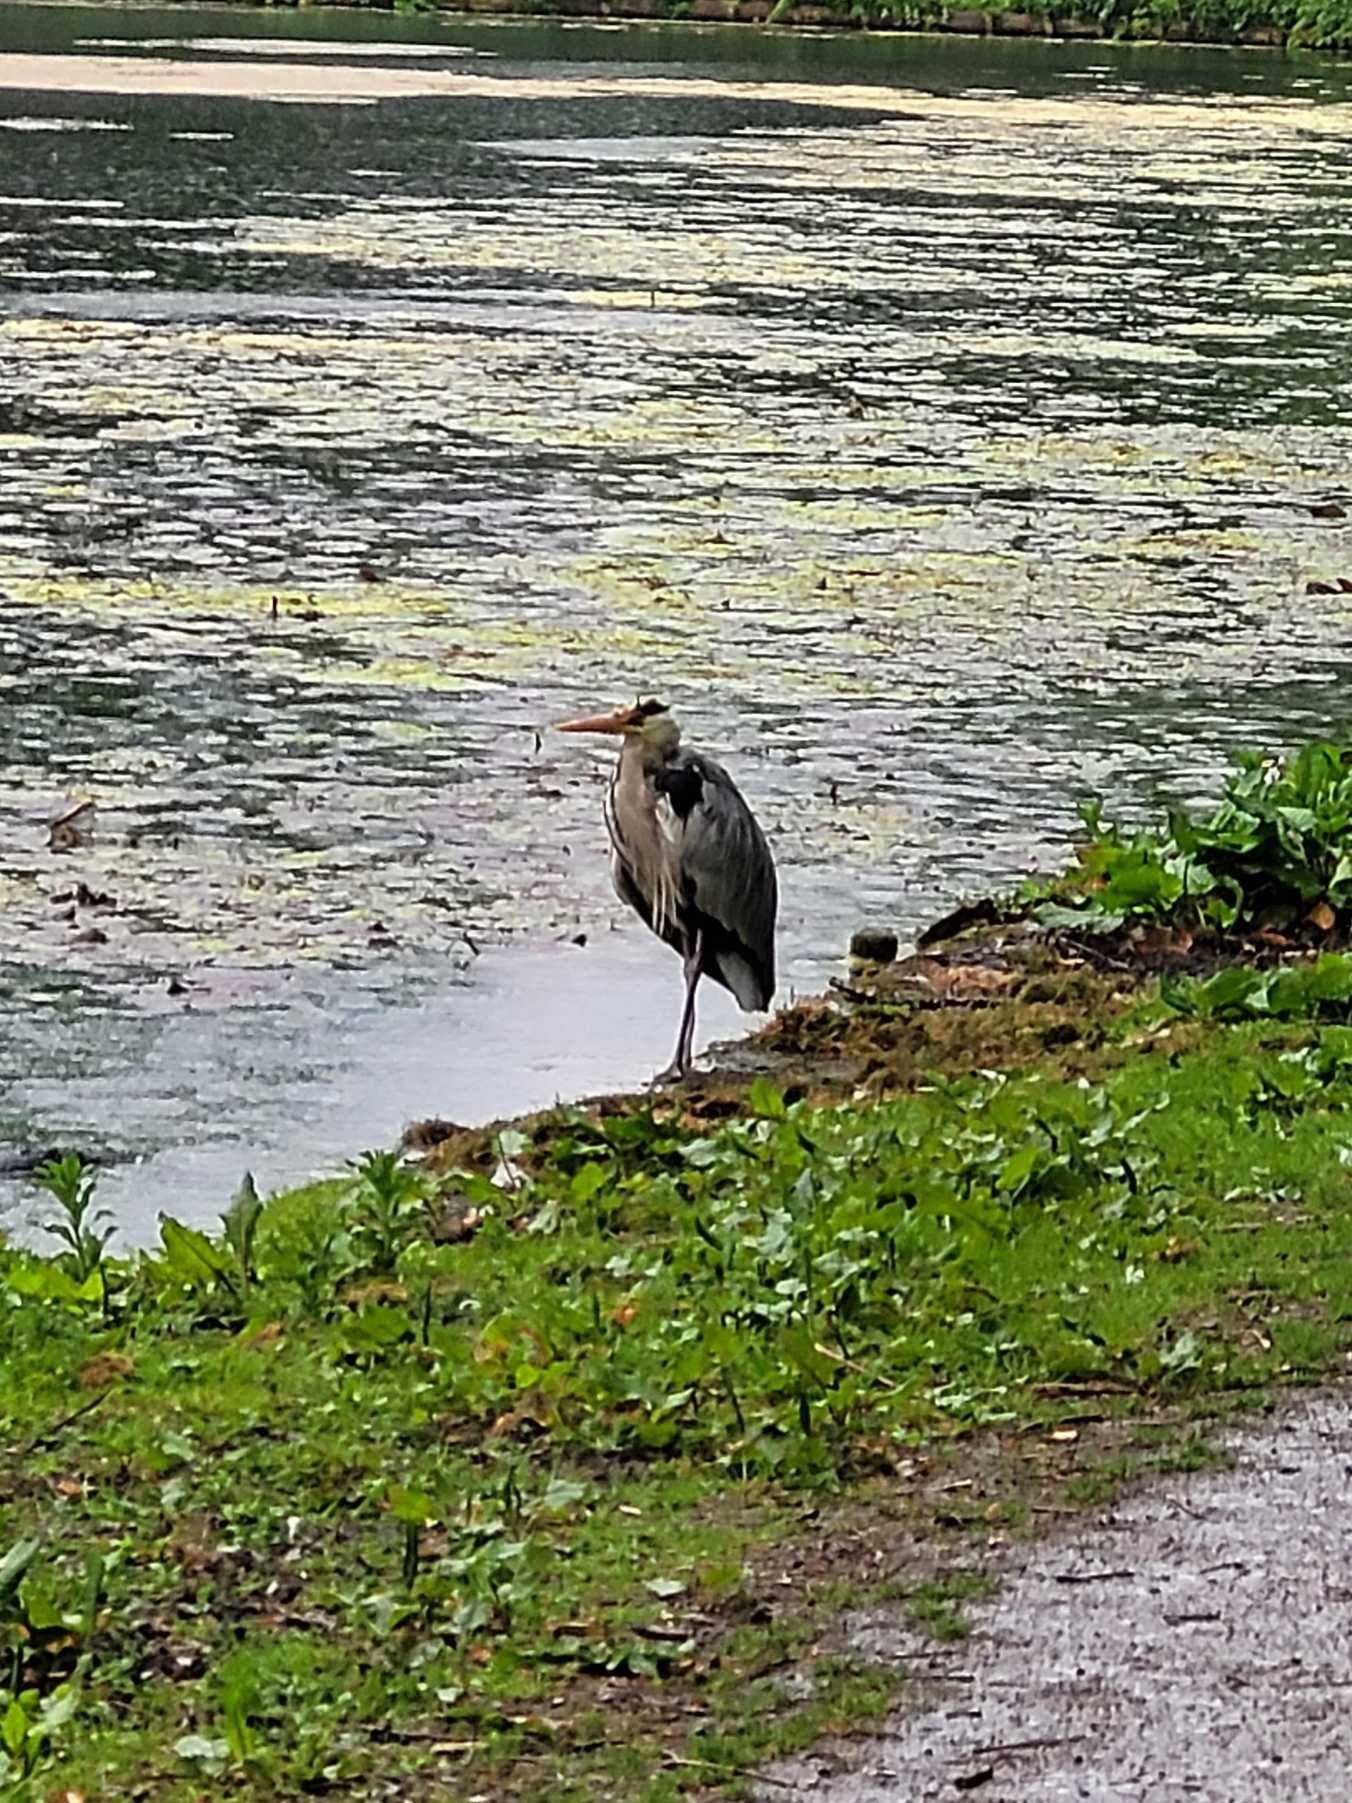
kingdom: Animalia
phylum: Chordata
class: Aves
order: Pelecaniformes
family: Ardeidae
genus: Ardea
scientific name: Ardea cinerea
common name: Fiskehejre
